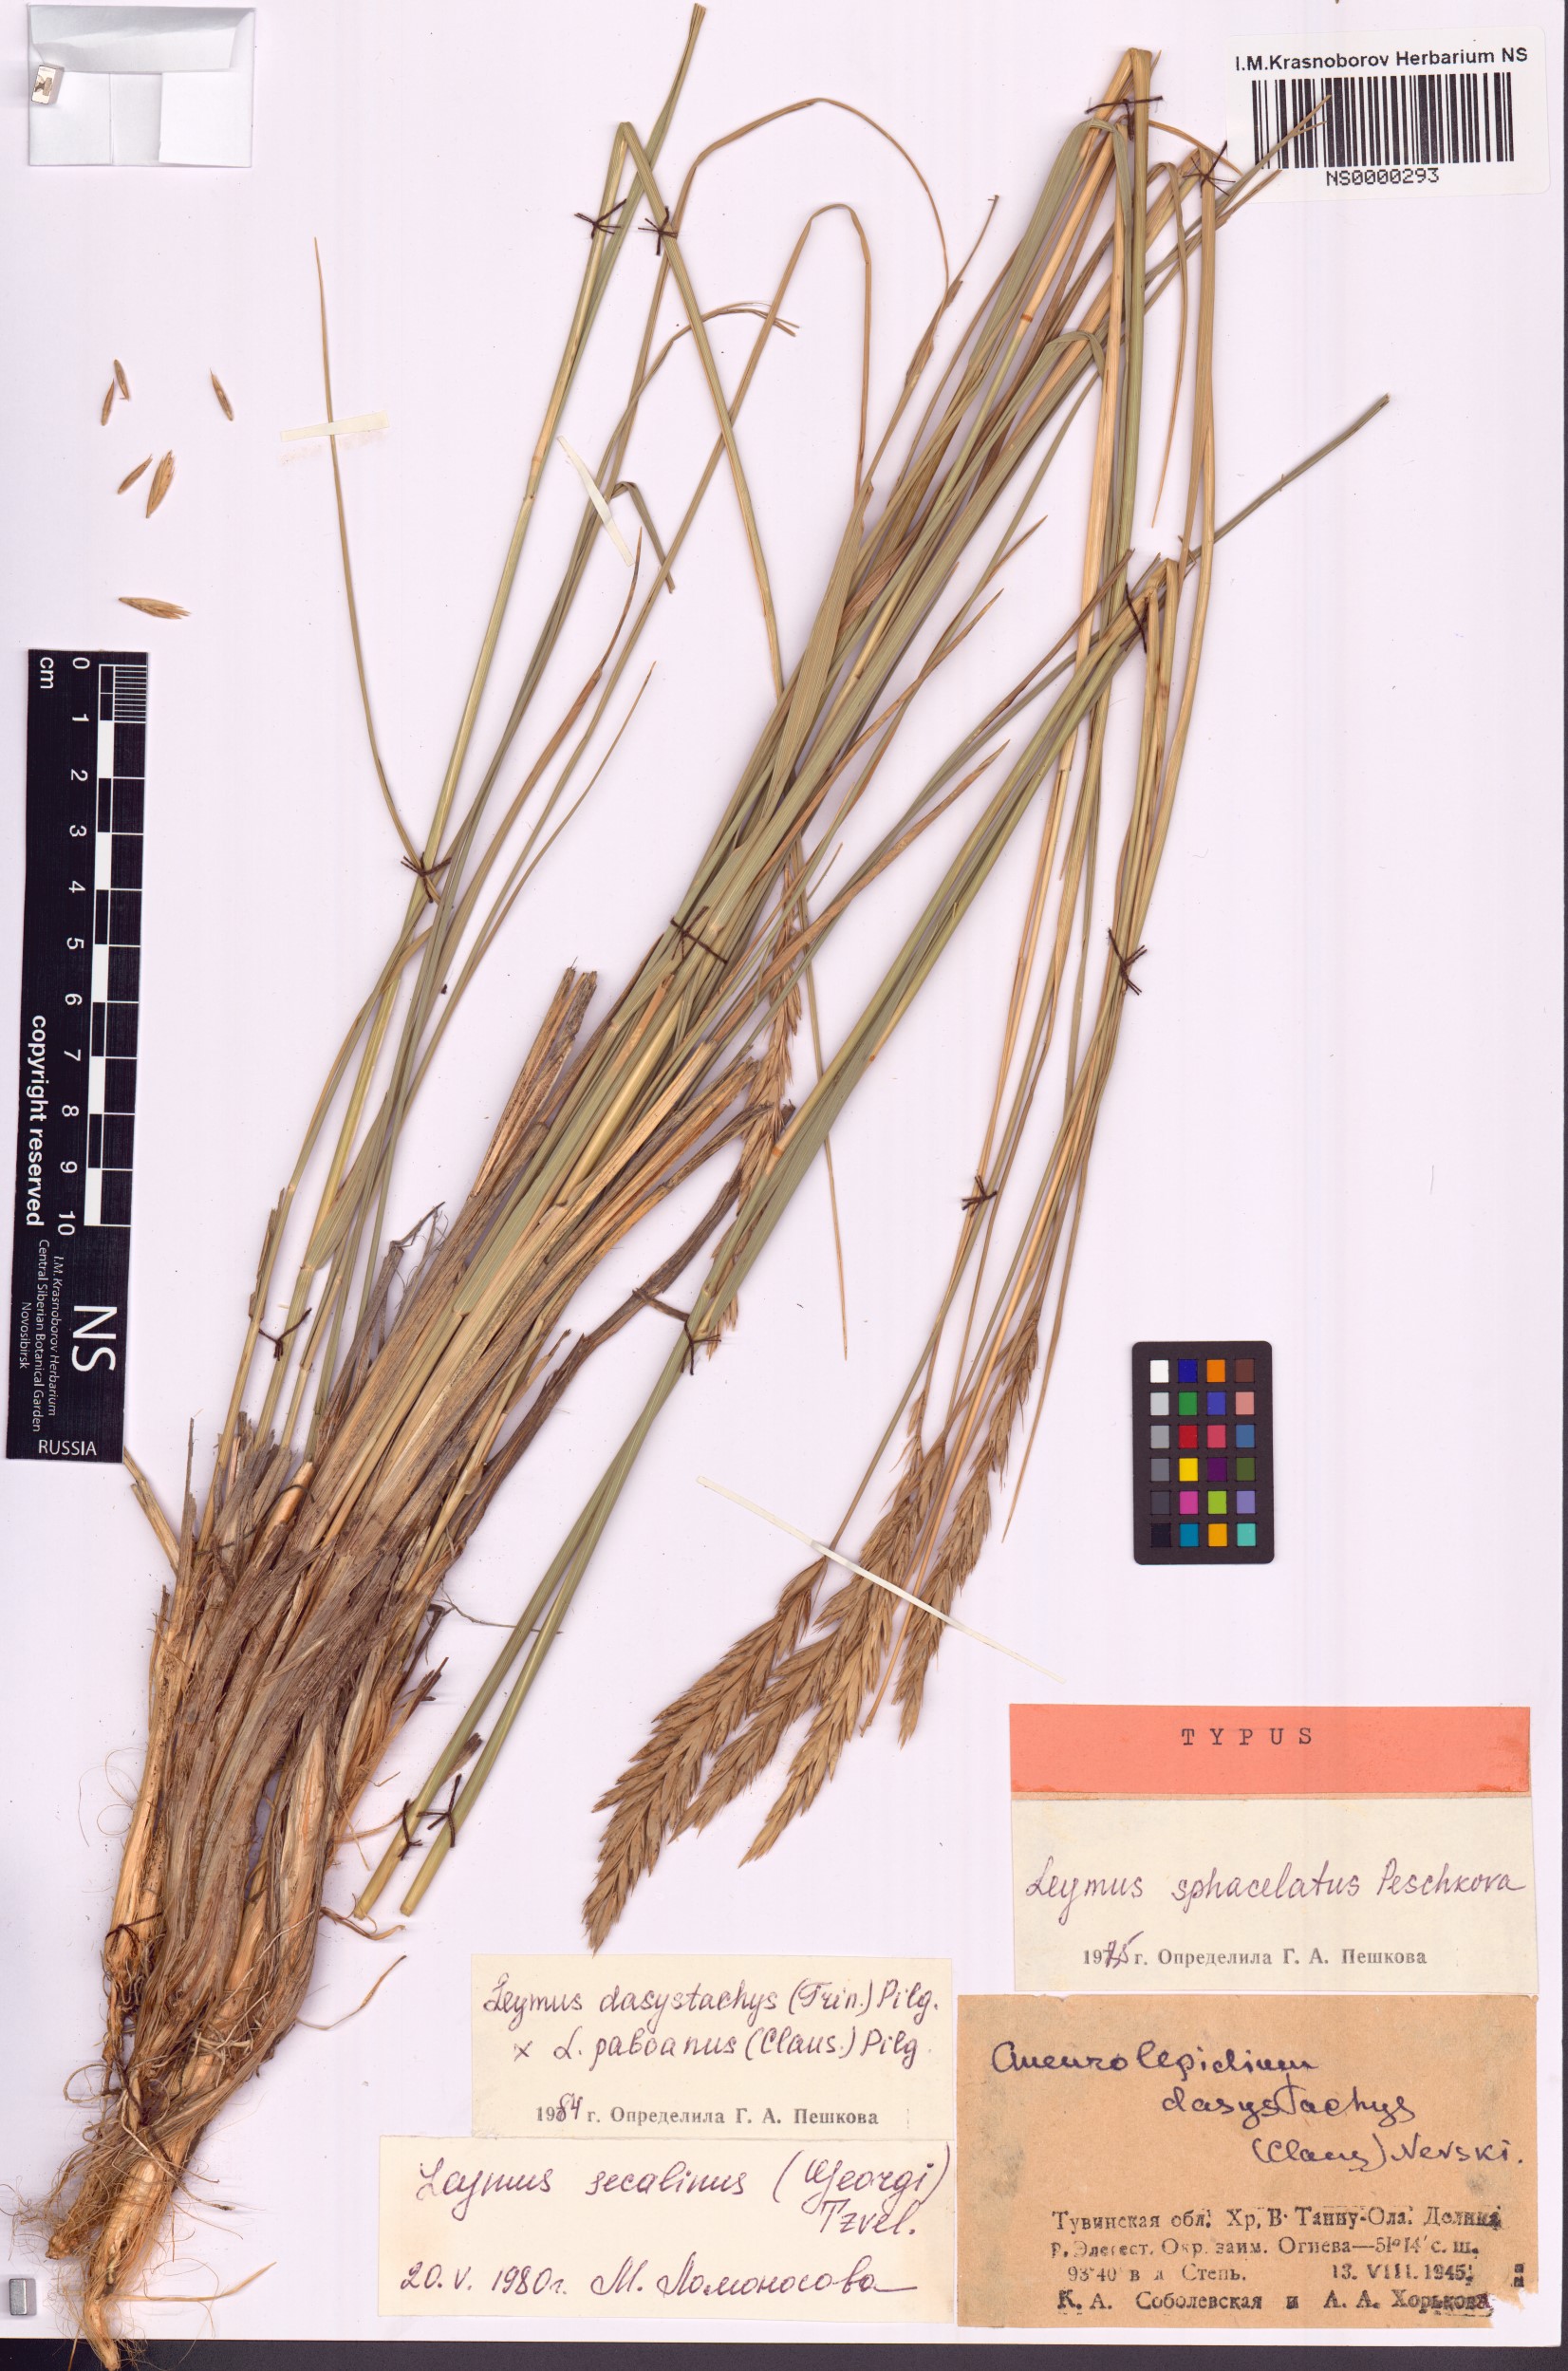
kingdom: Plantae
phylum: Tracheophyta
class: Liliopsida
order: Poales
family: Poaceae
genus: Leymus
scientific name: Leymus sphacelatus
